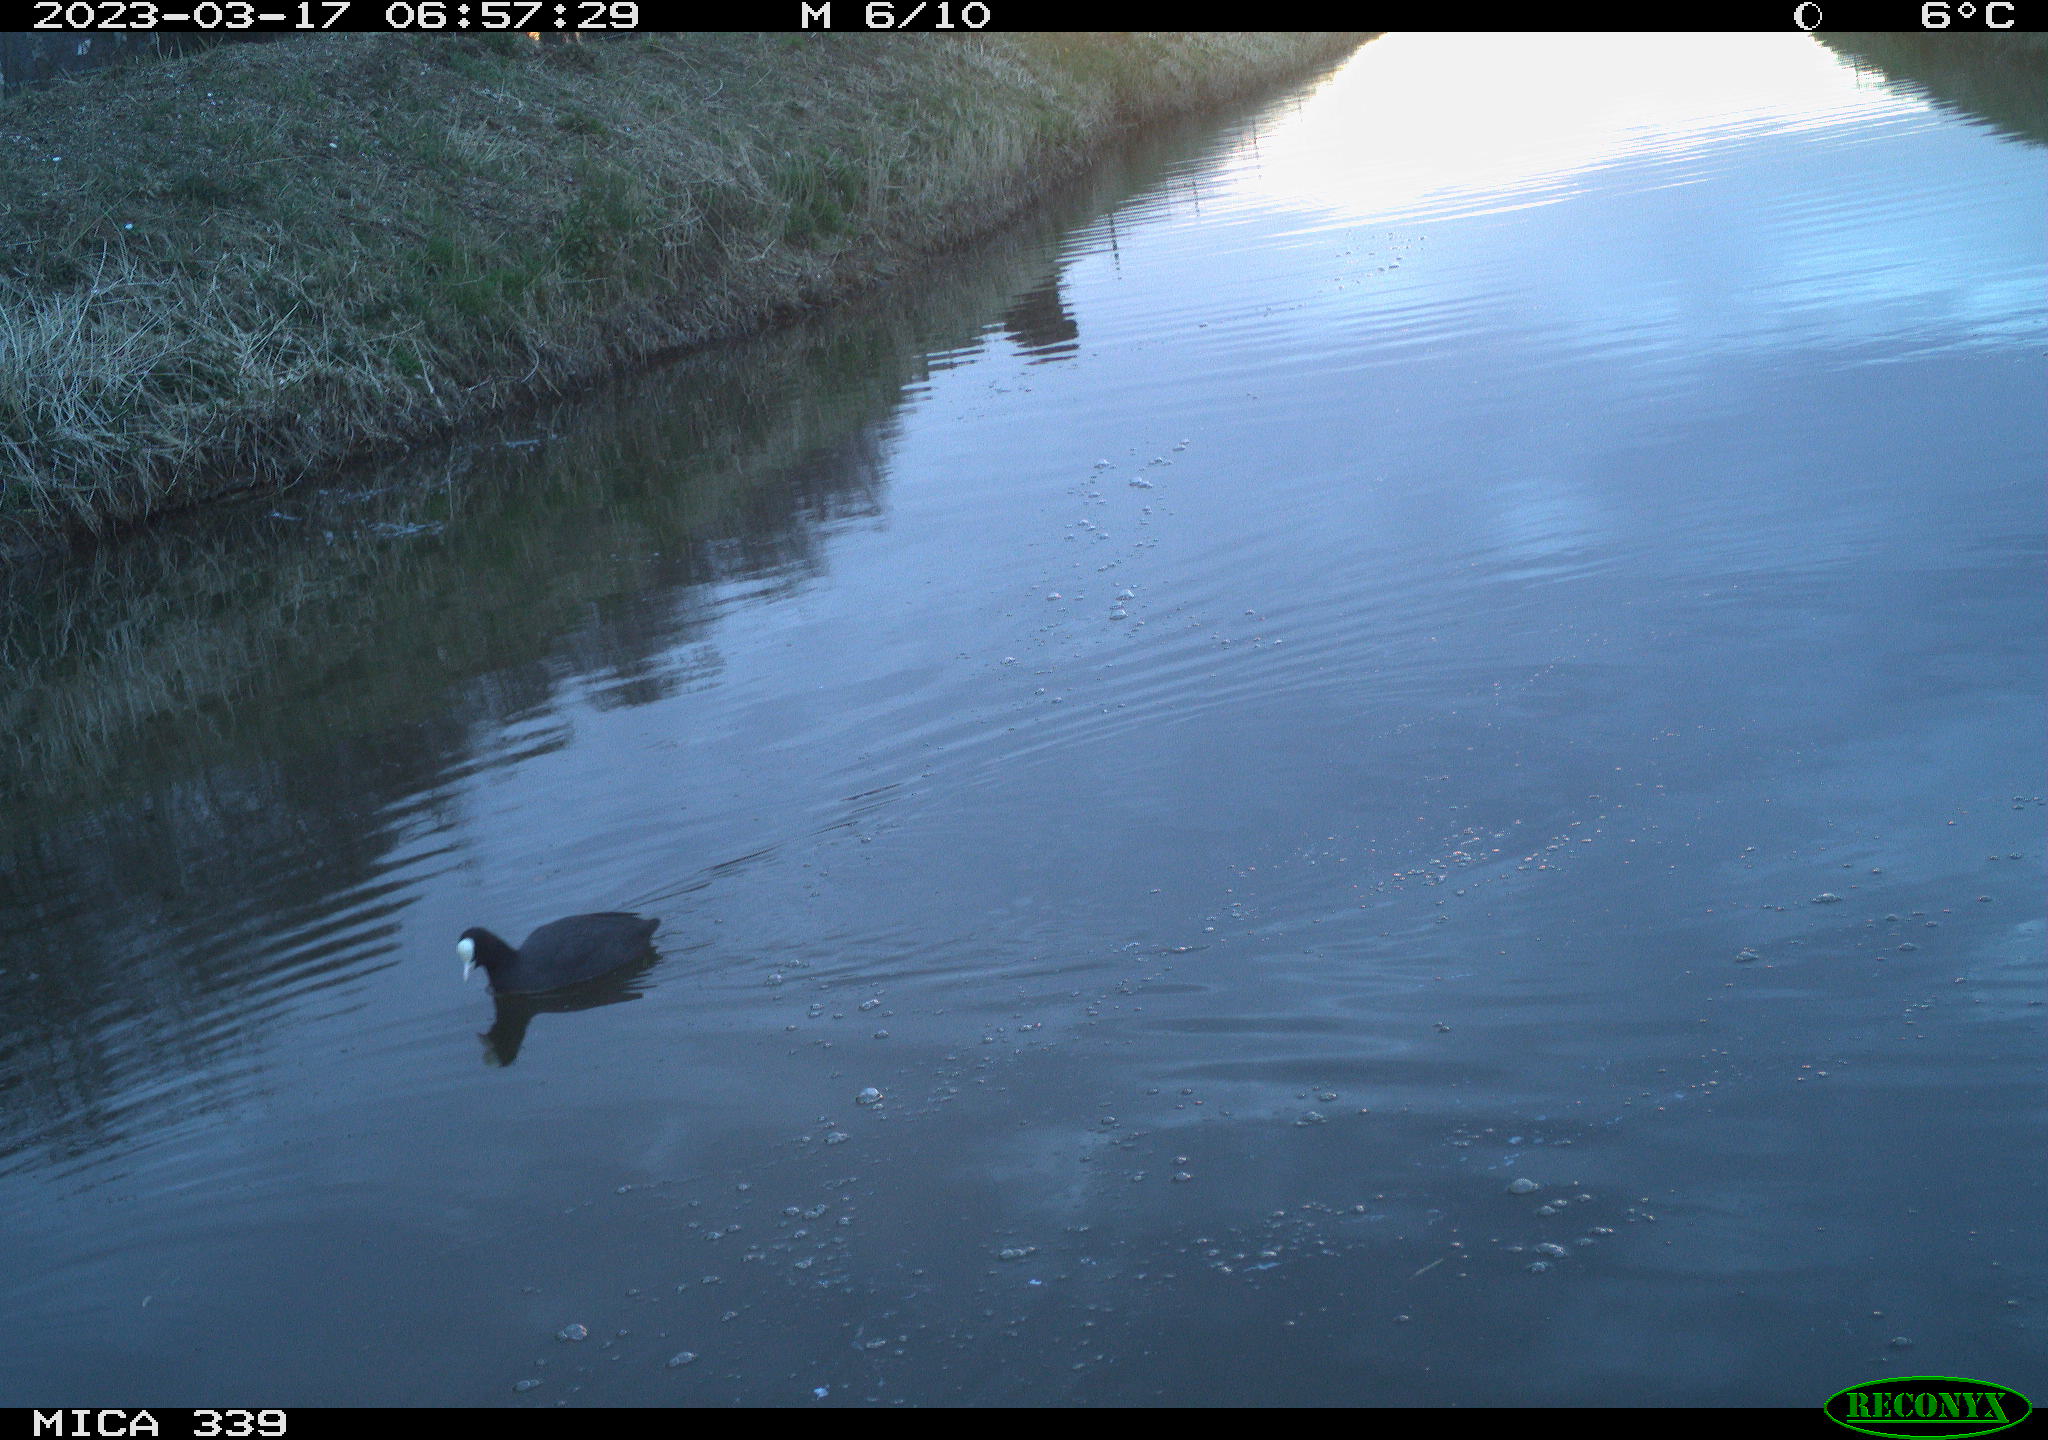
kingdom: Animalia
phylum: Chordata
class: Aves
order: Gruiformes
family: Rallidae
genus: Gallinula
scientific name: Gallinula chloropus
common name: Common moorhen
